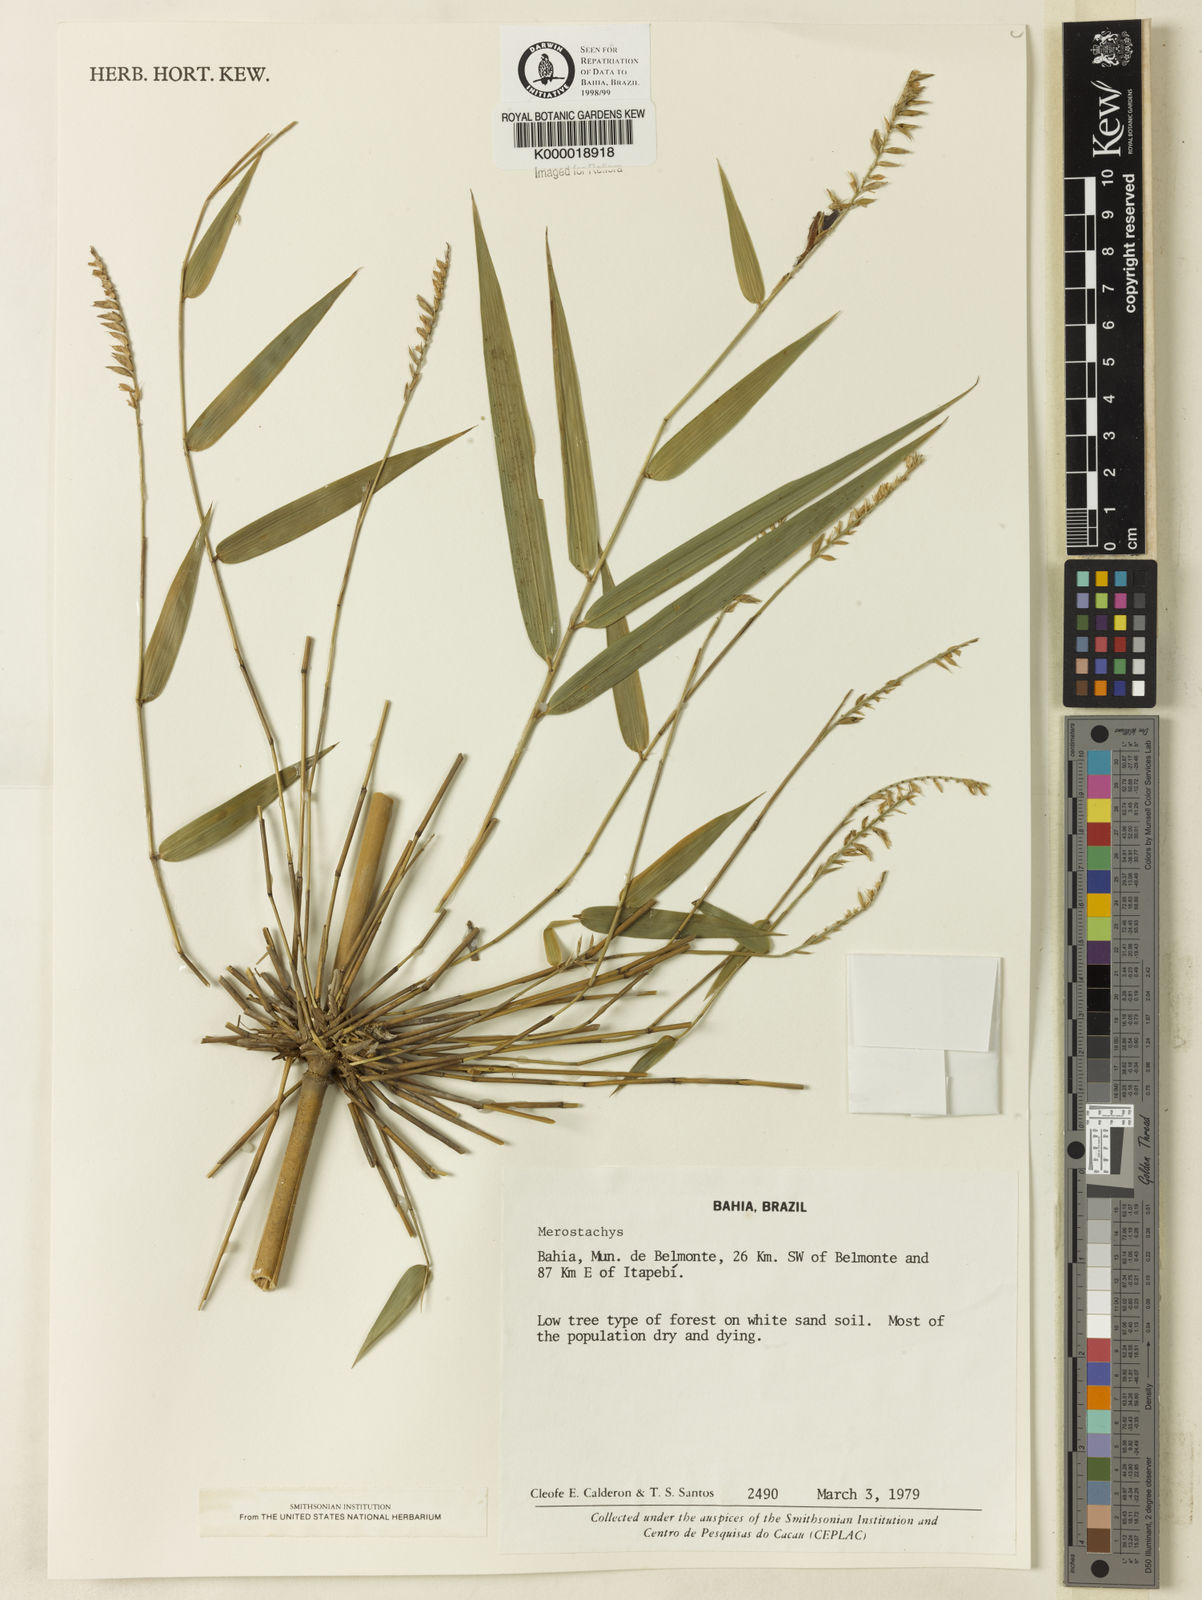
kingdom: Plantae
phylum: Tracheophyta
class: Liliopsida
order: Poales
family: Poaceae
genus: Merostachys
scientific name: Merostachys
